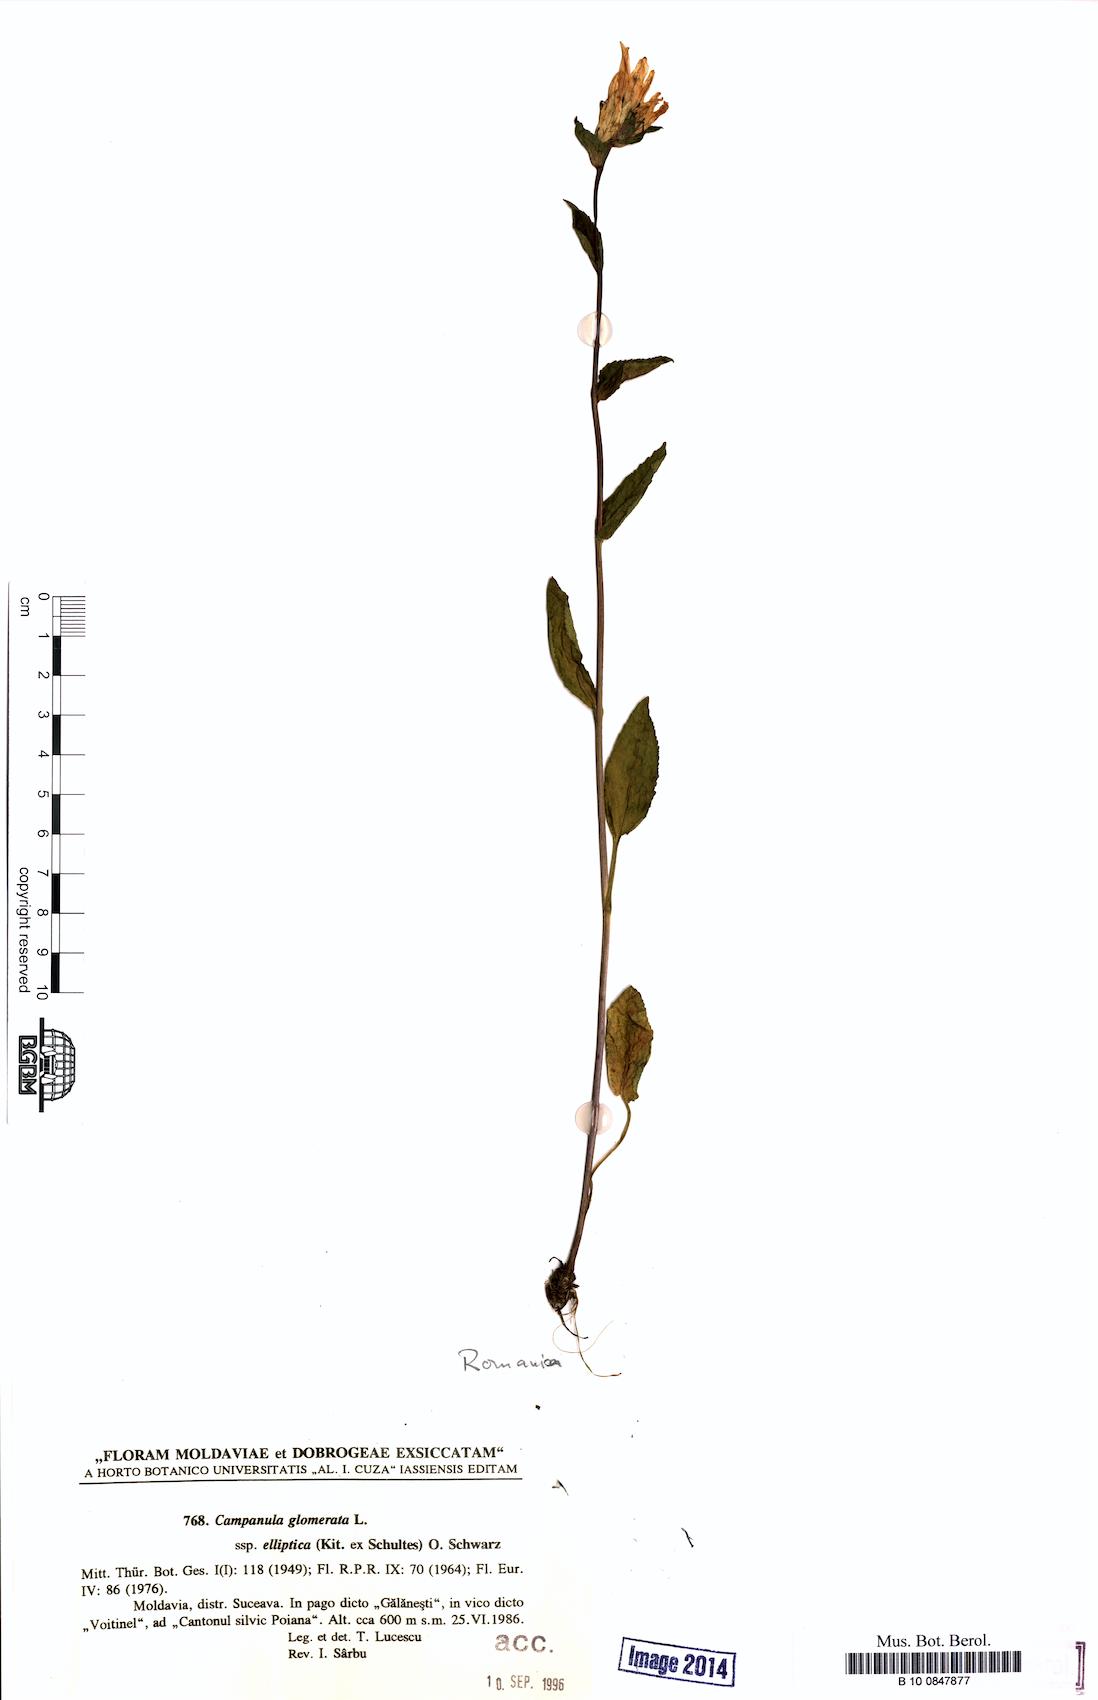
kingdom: Plantae
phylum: Tracheophyta
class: Magnoliopsida
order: Asterales
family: Campanulaceae
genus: Campanula
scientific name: Campanula glomerata
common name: Clustered bellflower
